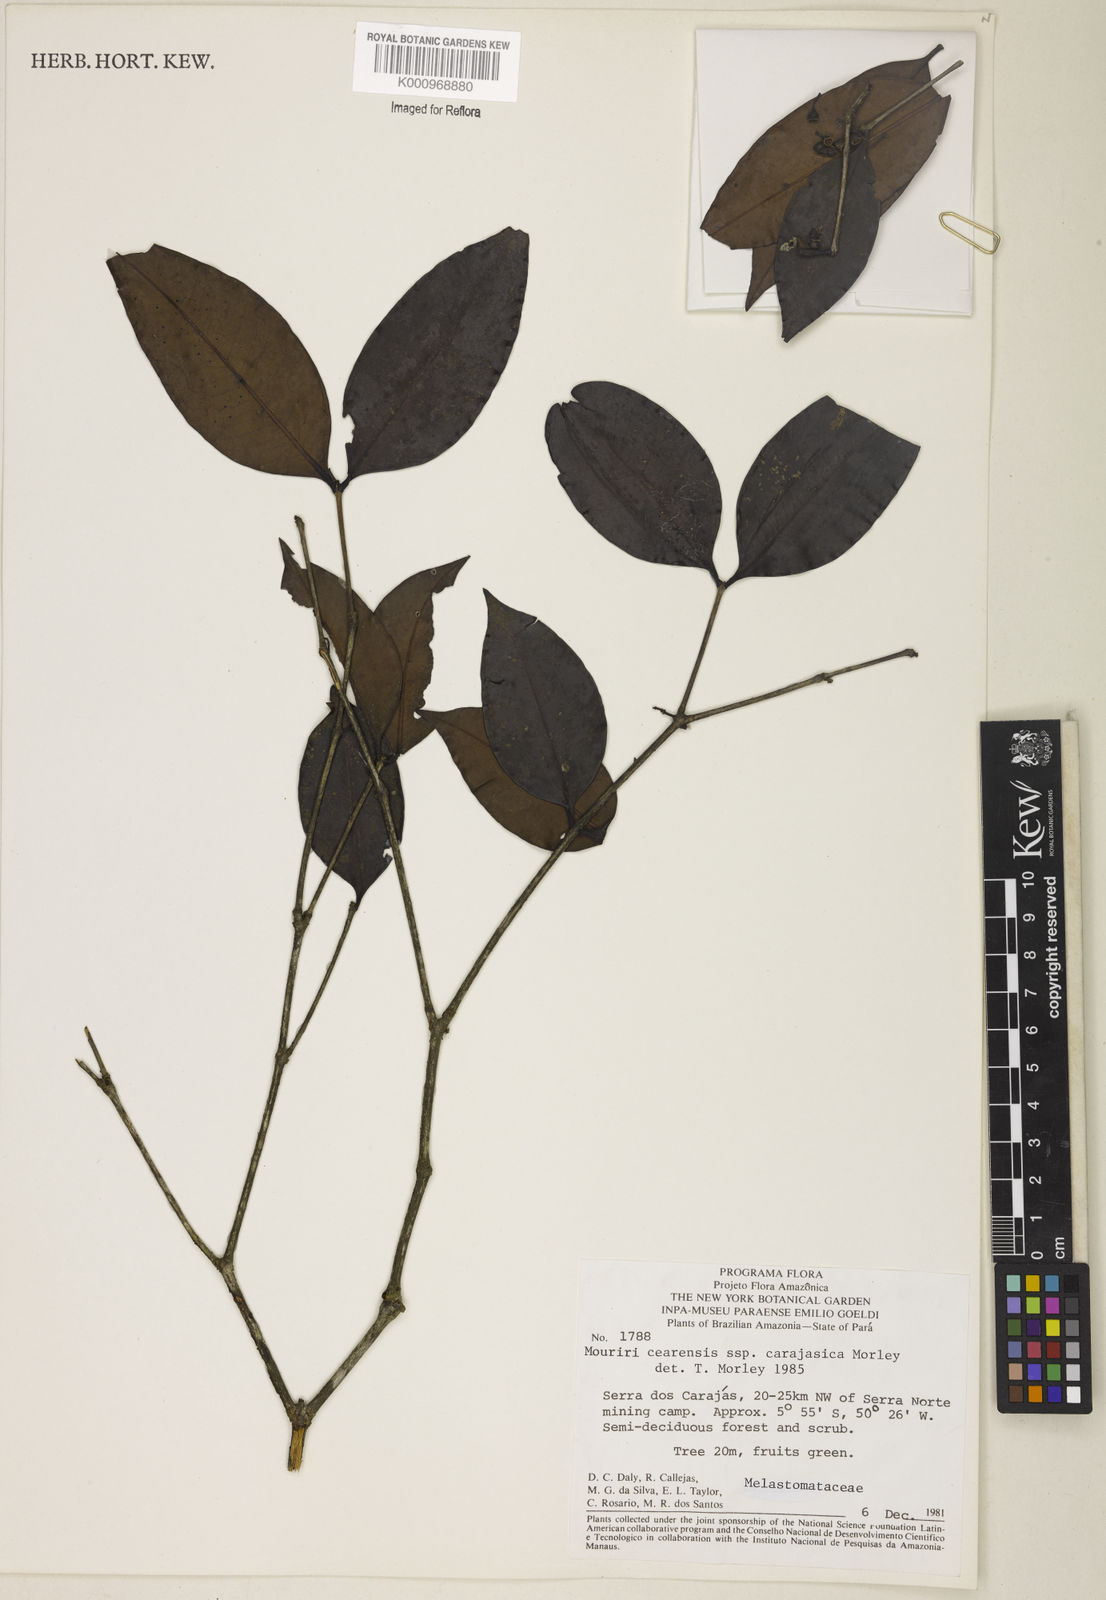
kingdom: Plantae
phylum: Tracheophyta
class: Magnoliopsida
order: Myrtales
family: Melastomataceae
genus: Mouriri
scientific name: Mouriri cearensis
